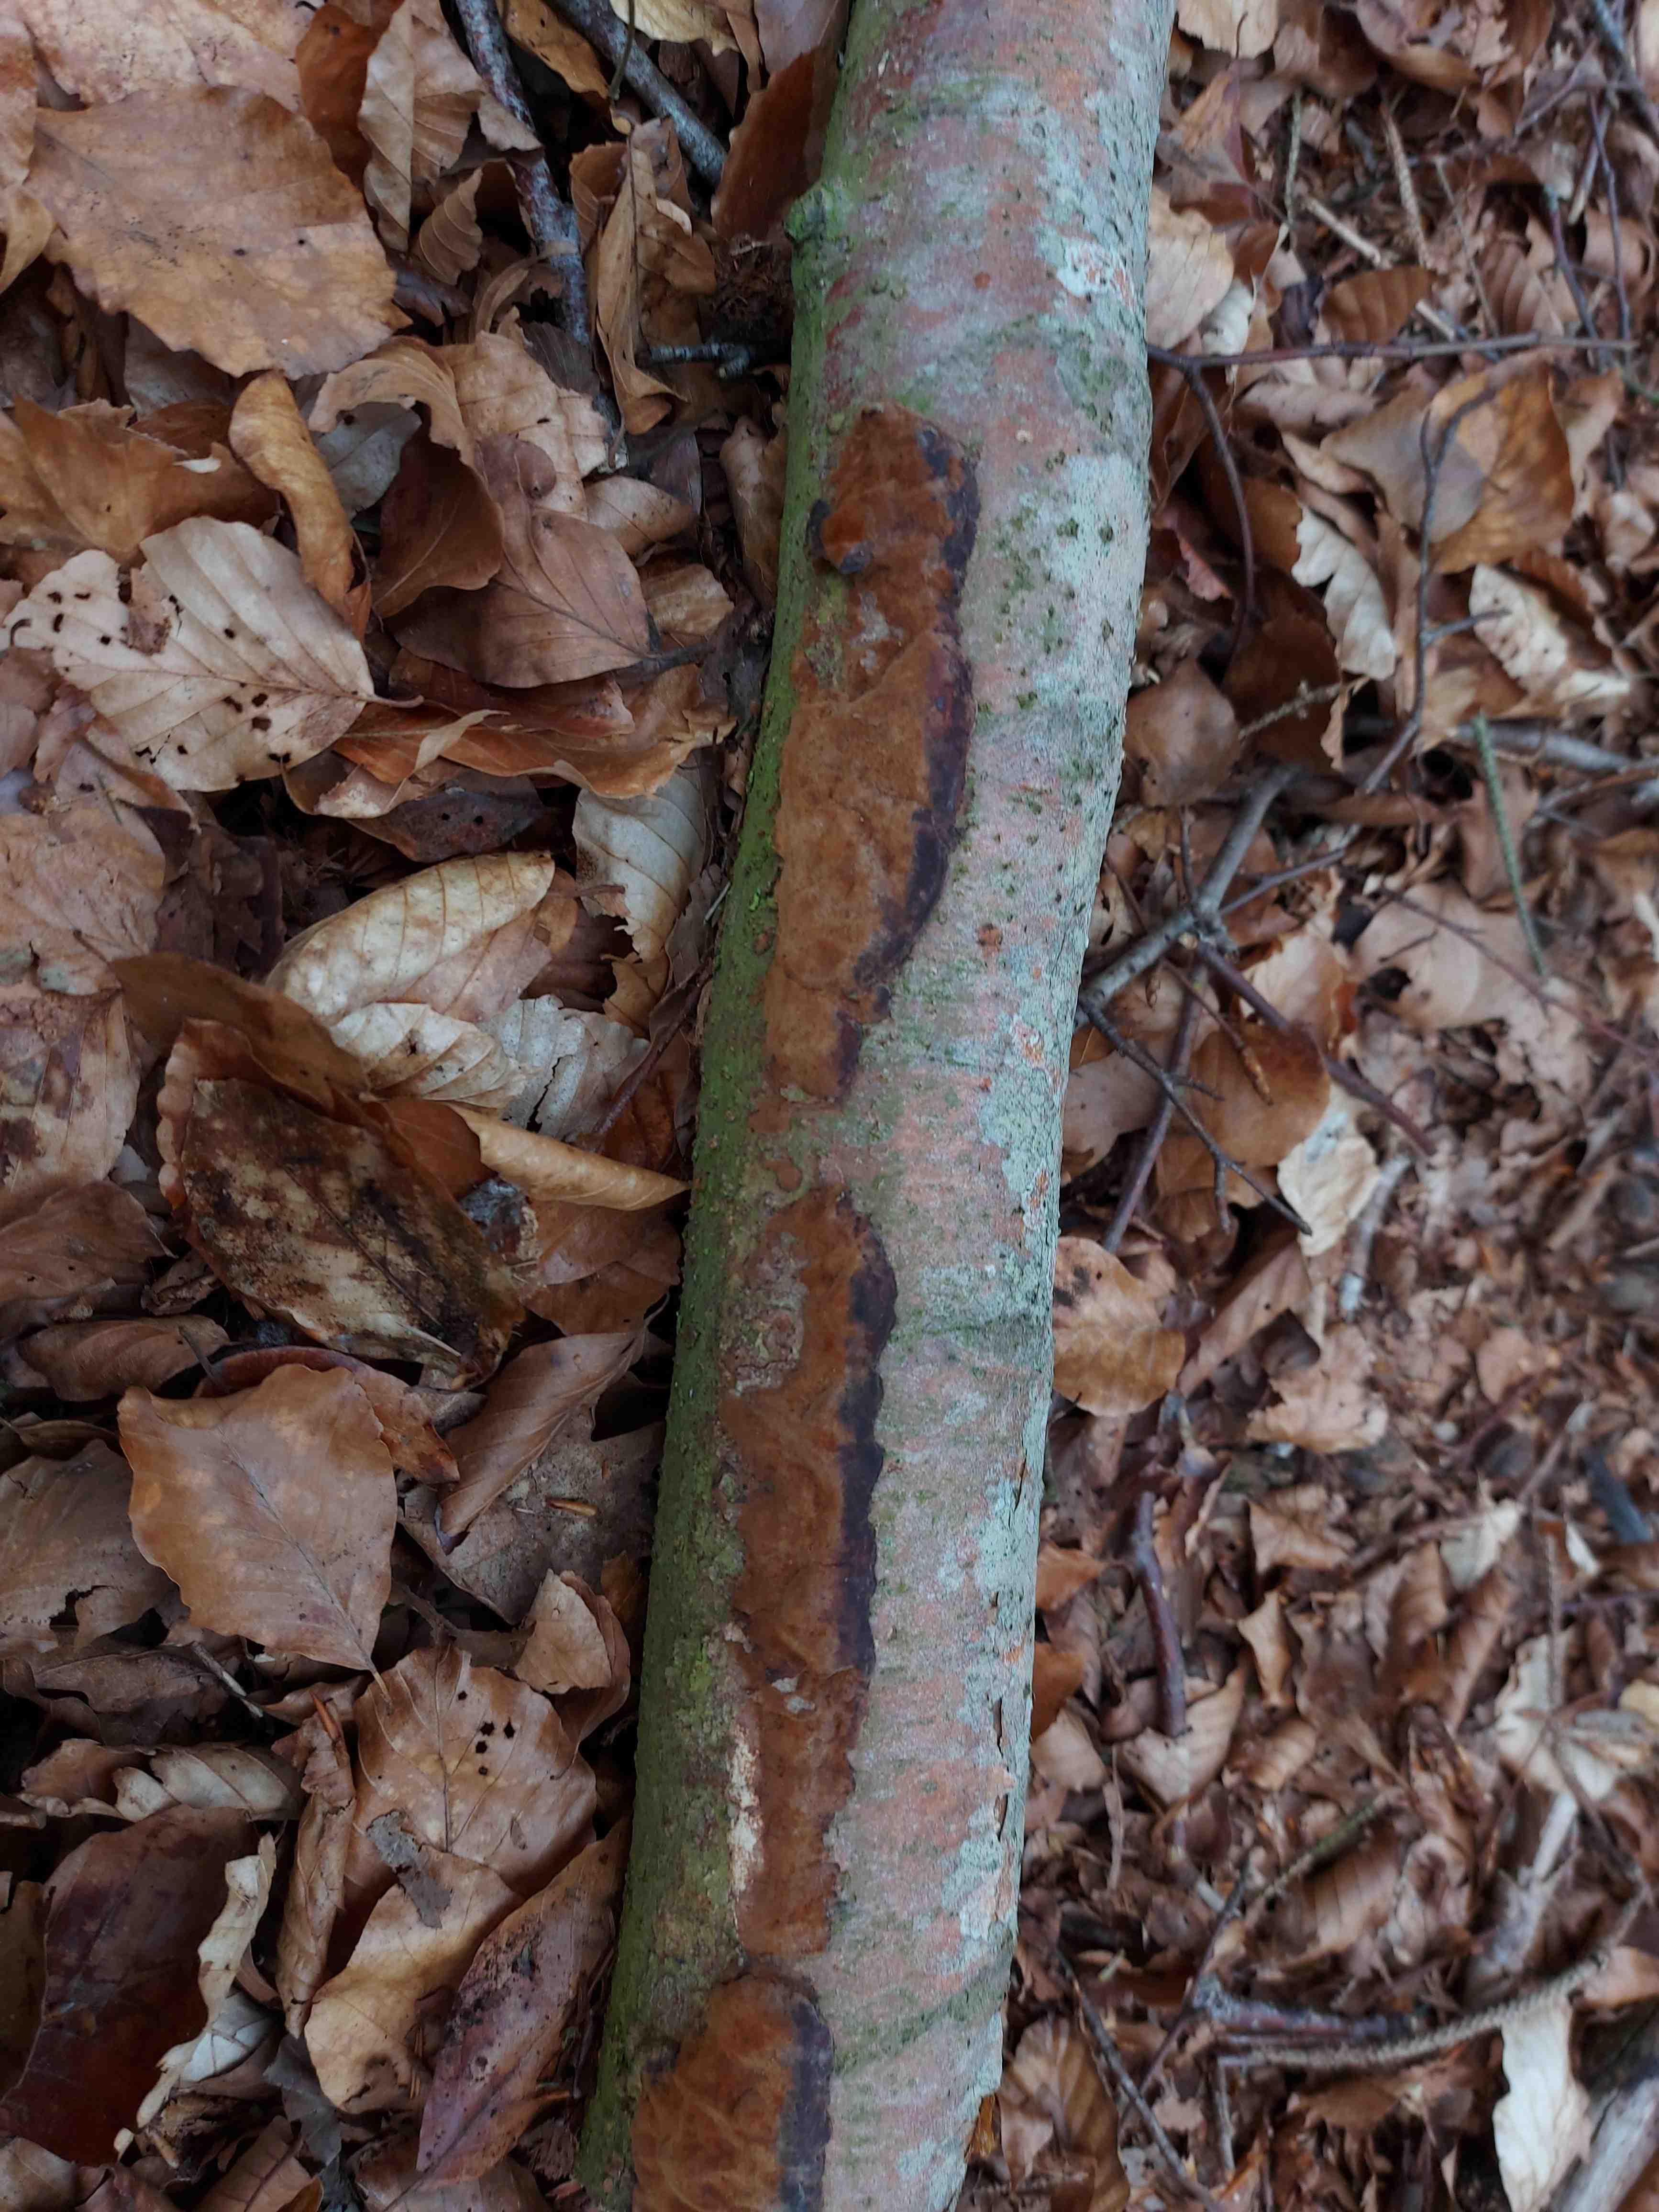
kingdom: Fungi
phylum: Basidiomycota
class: Agaricomycetes
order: Hymenochaetales
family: Hymenochaetaceae
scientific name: Hymenochaetaceae
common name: børstesvampfamilien
